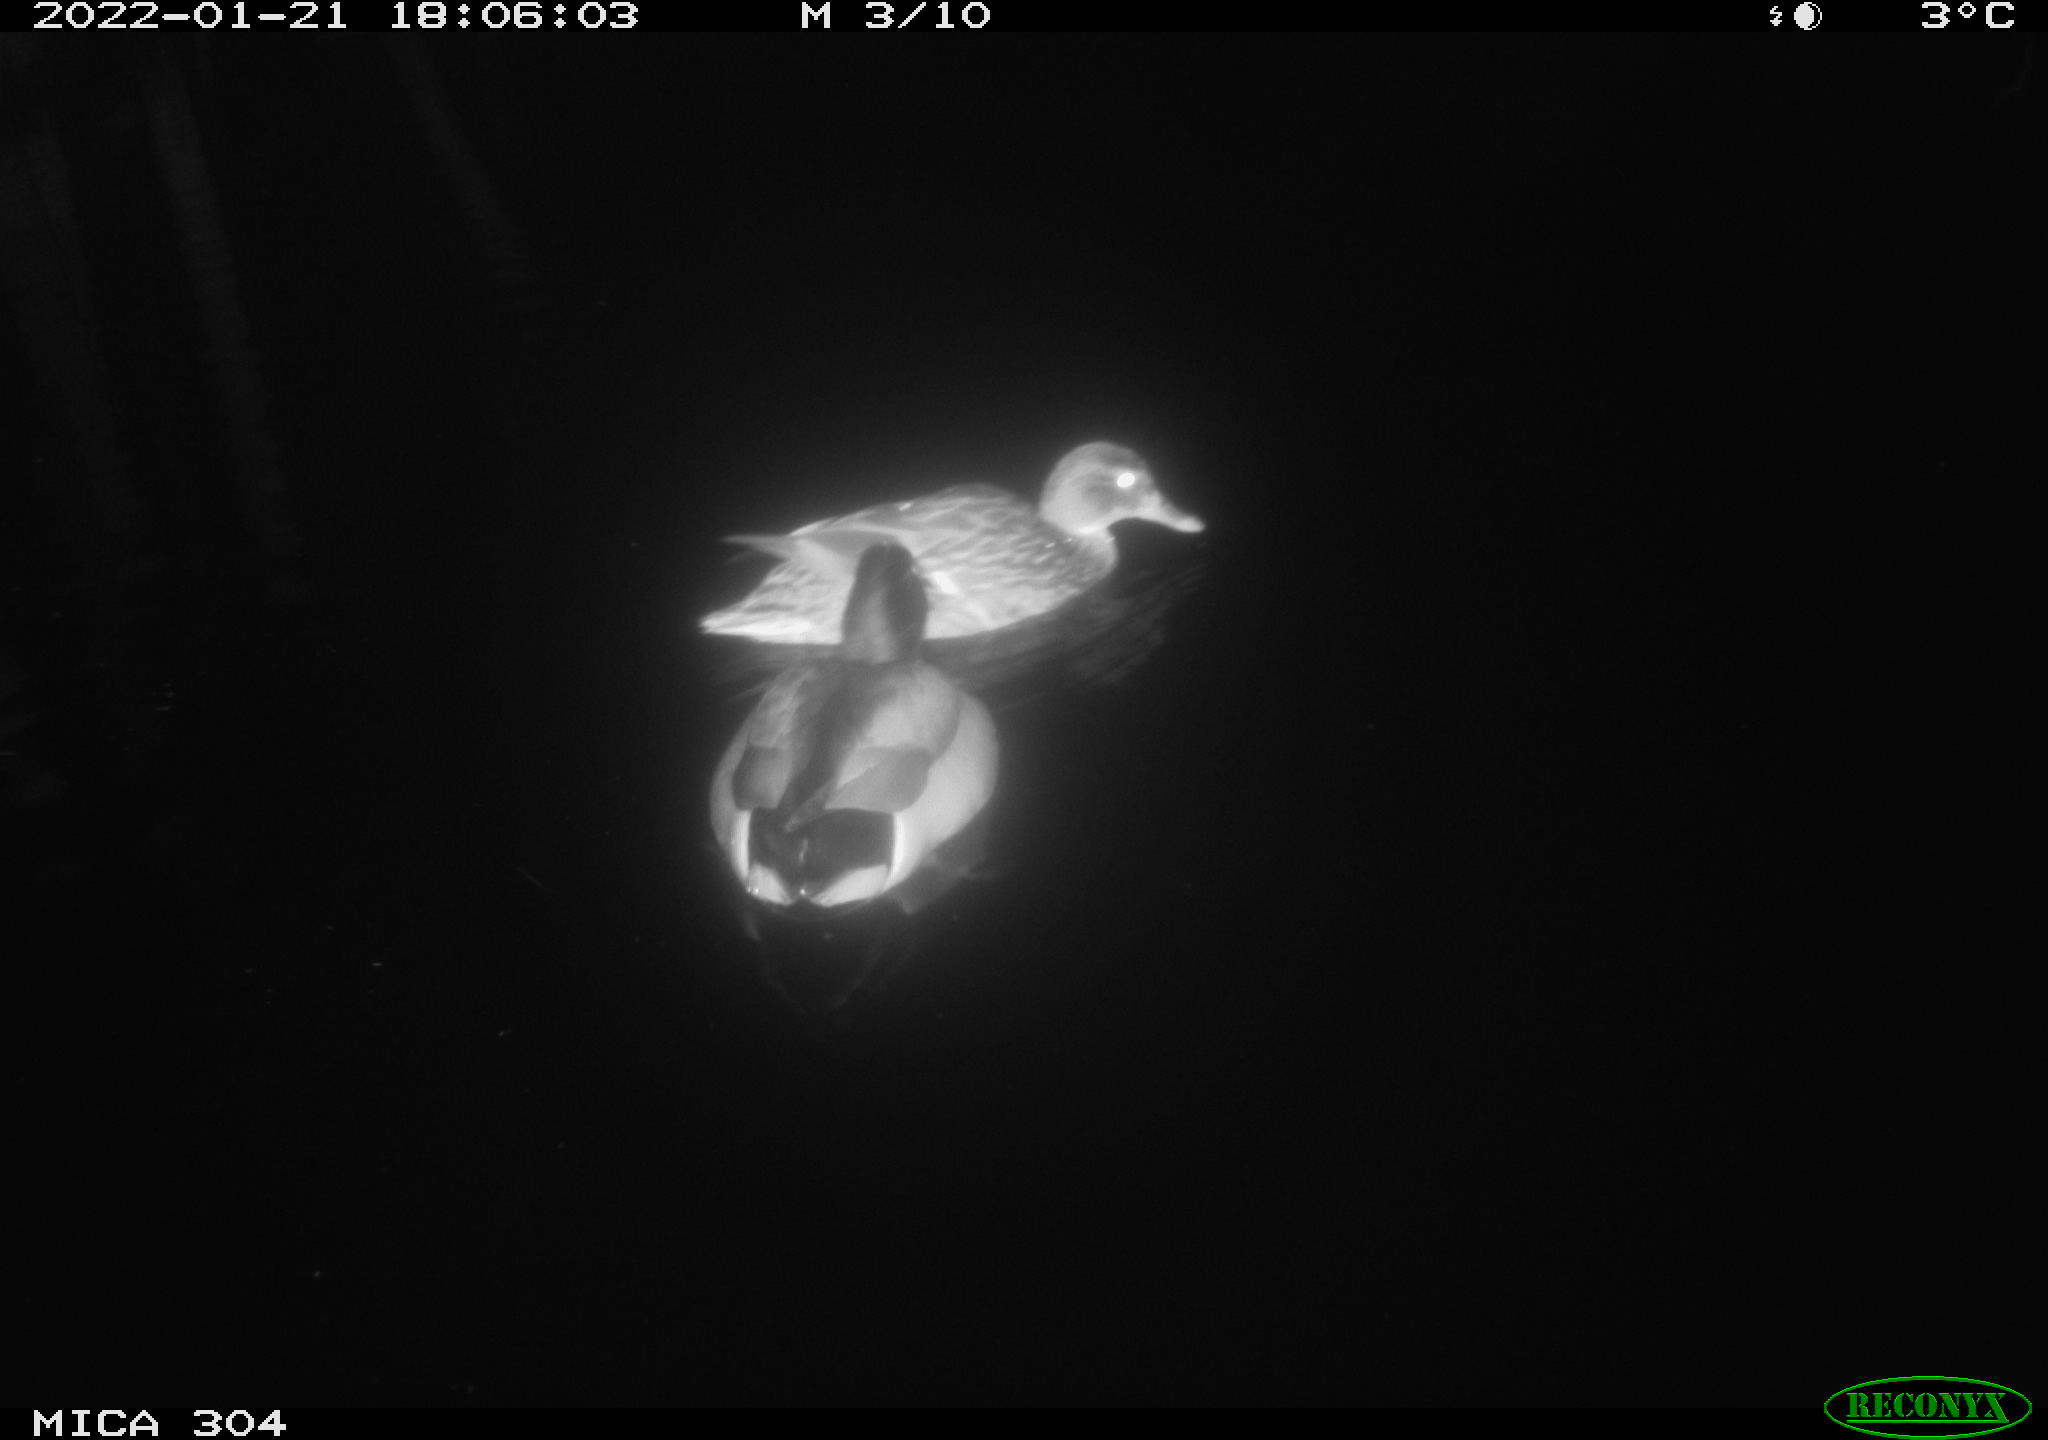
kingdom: Animalia
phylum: Chordata
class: Aves
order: Anseriformes
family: Anatidae
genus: Anas
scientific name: Anas
